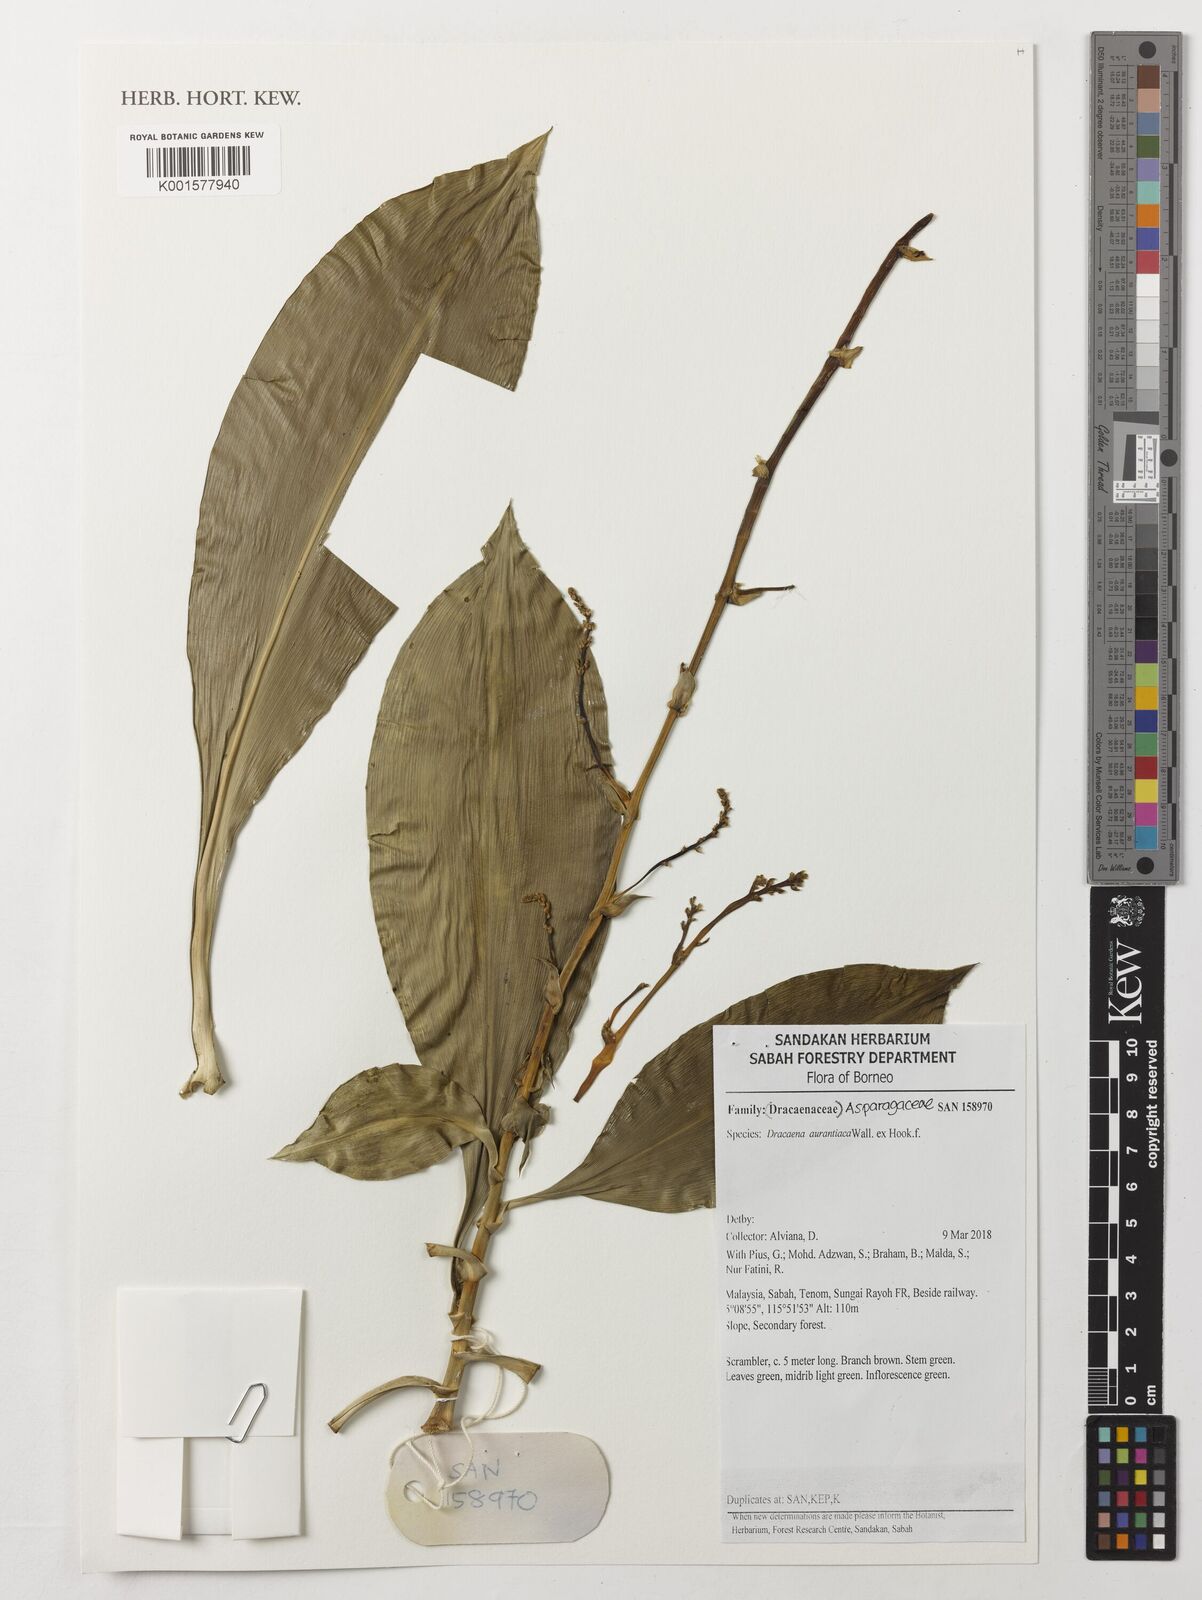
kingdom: Plantae
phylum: Tracheophyta
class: Liliopsida
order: Asparagales
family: Asparagaceae
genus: Dracaena
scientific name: Dracaena
